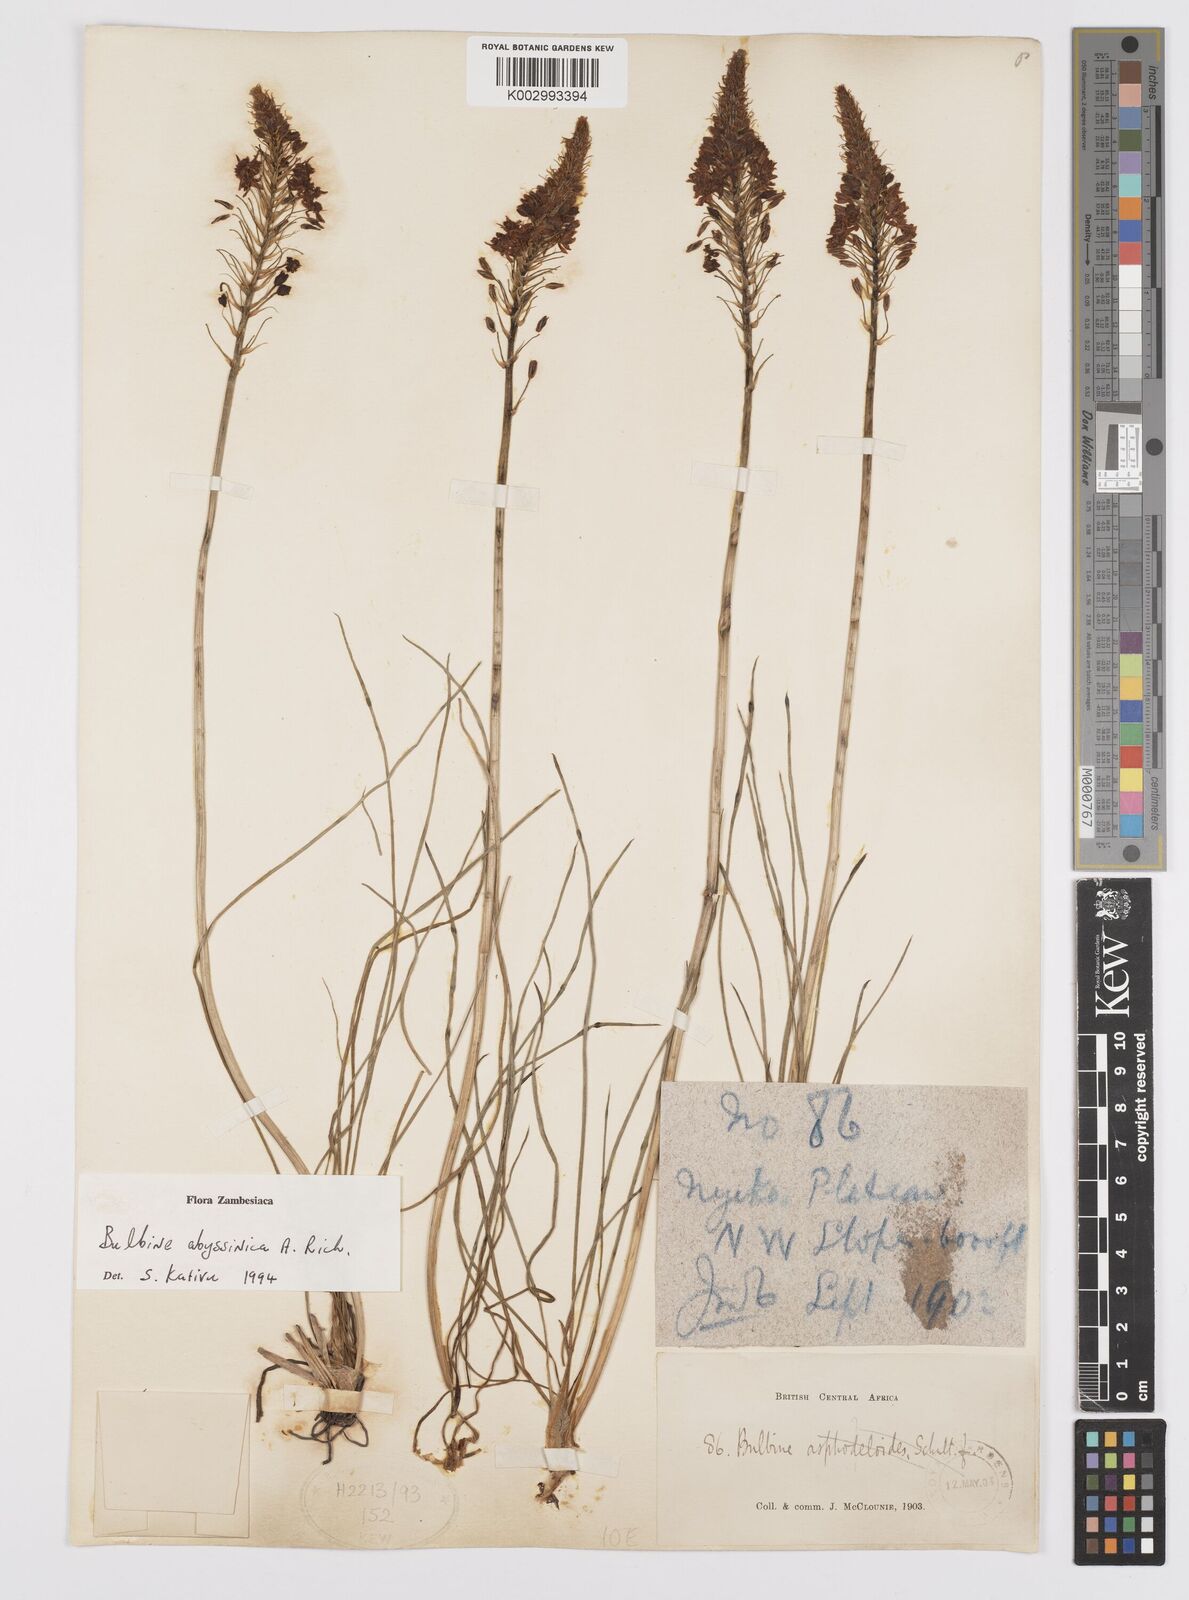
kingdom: Plantae
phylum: Tracheophyta
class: Liliopsida
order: Asparagales
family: Asphodelaceae
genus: Bulbine
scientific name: Bulbine abyssinica
